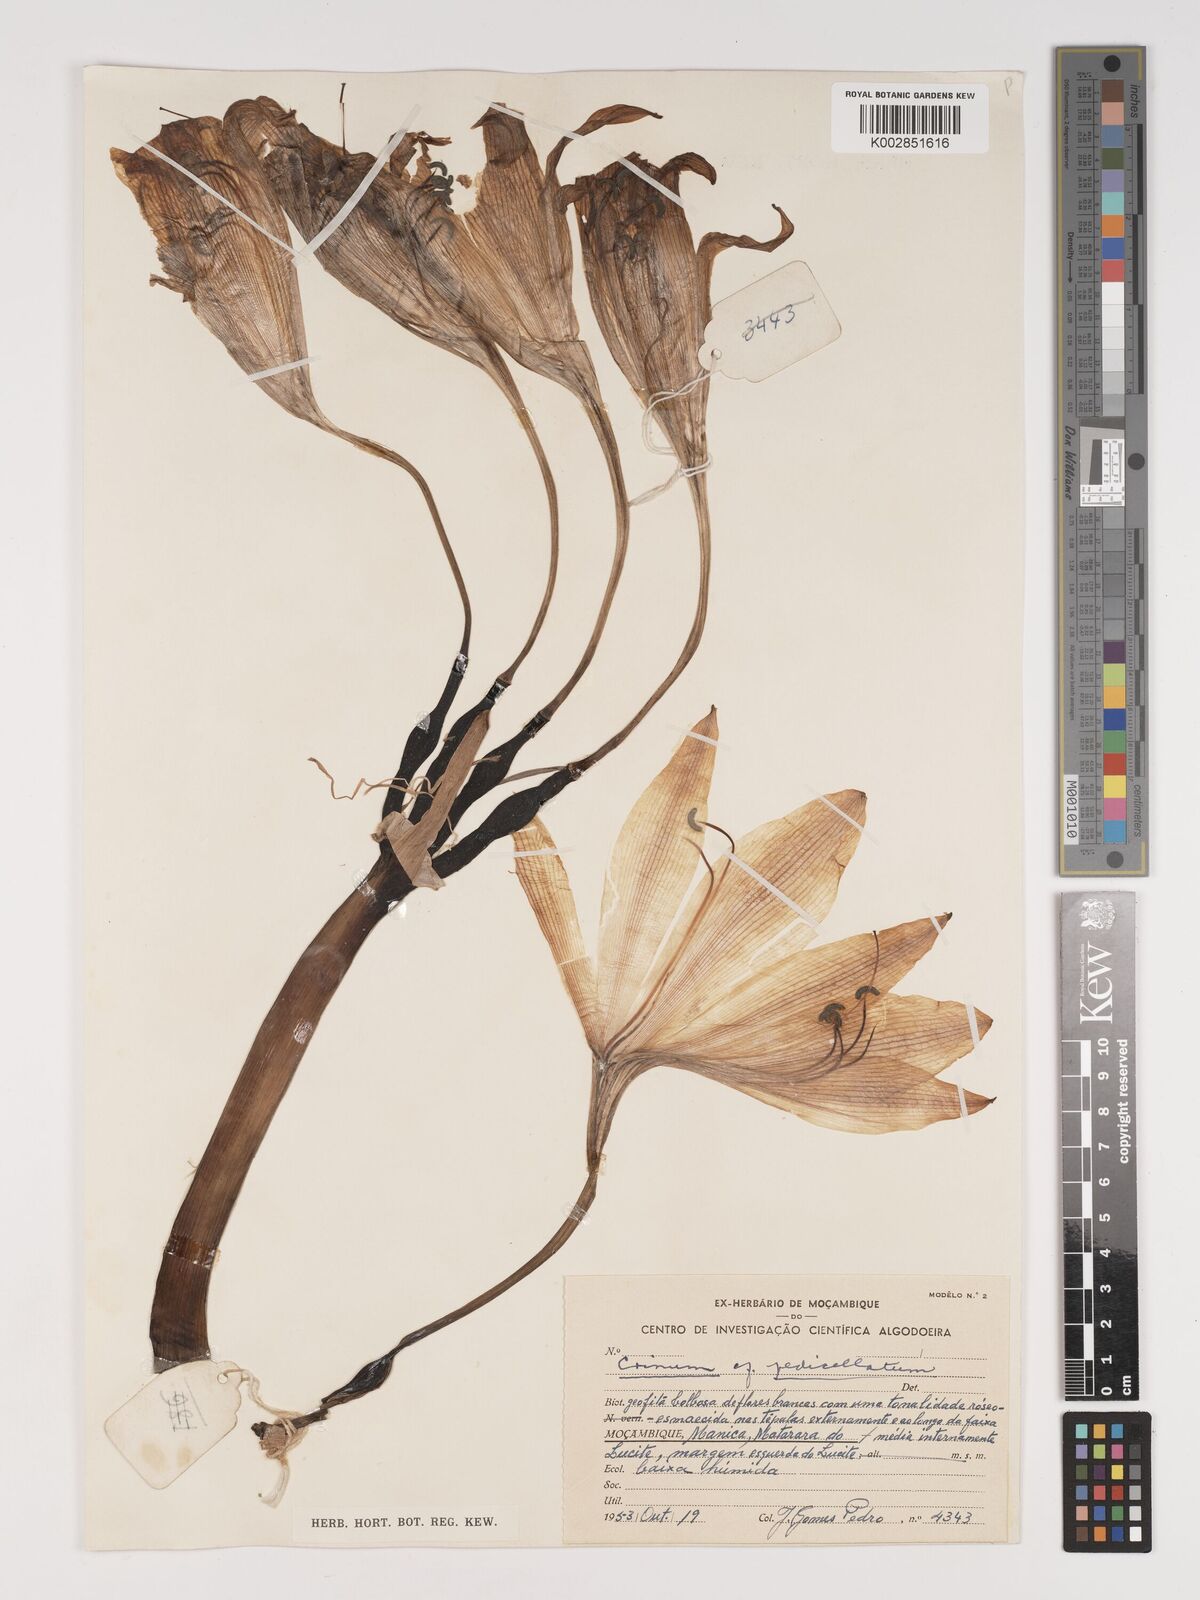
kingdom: Plantae
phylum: Tracheophyta
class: Liliopsida
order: Asparagales
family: Amaryllidaceae
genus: Crinum
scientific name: Crinum macowanii
